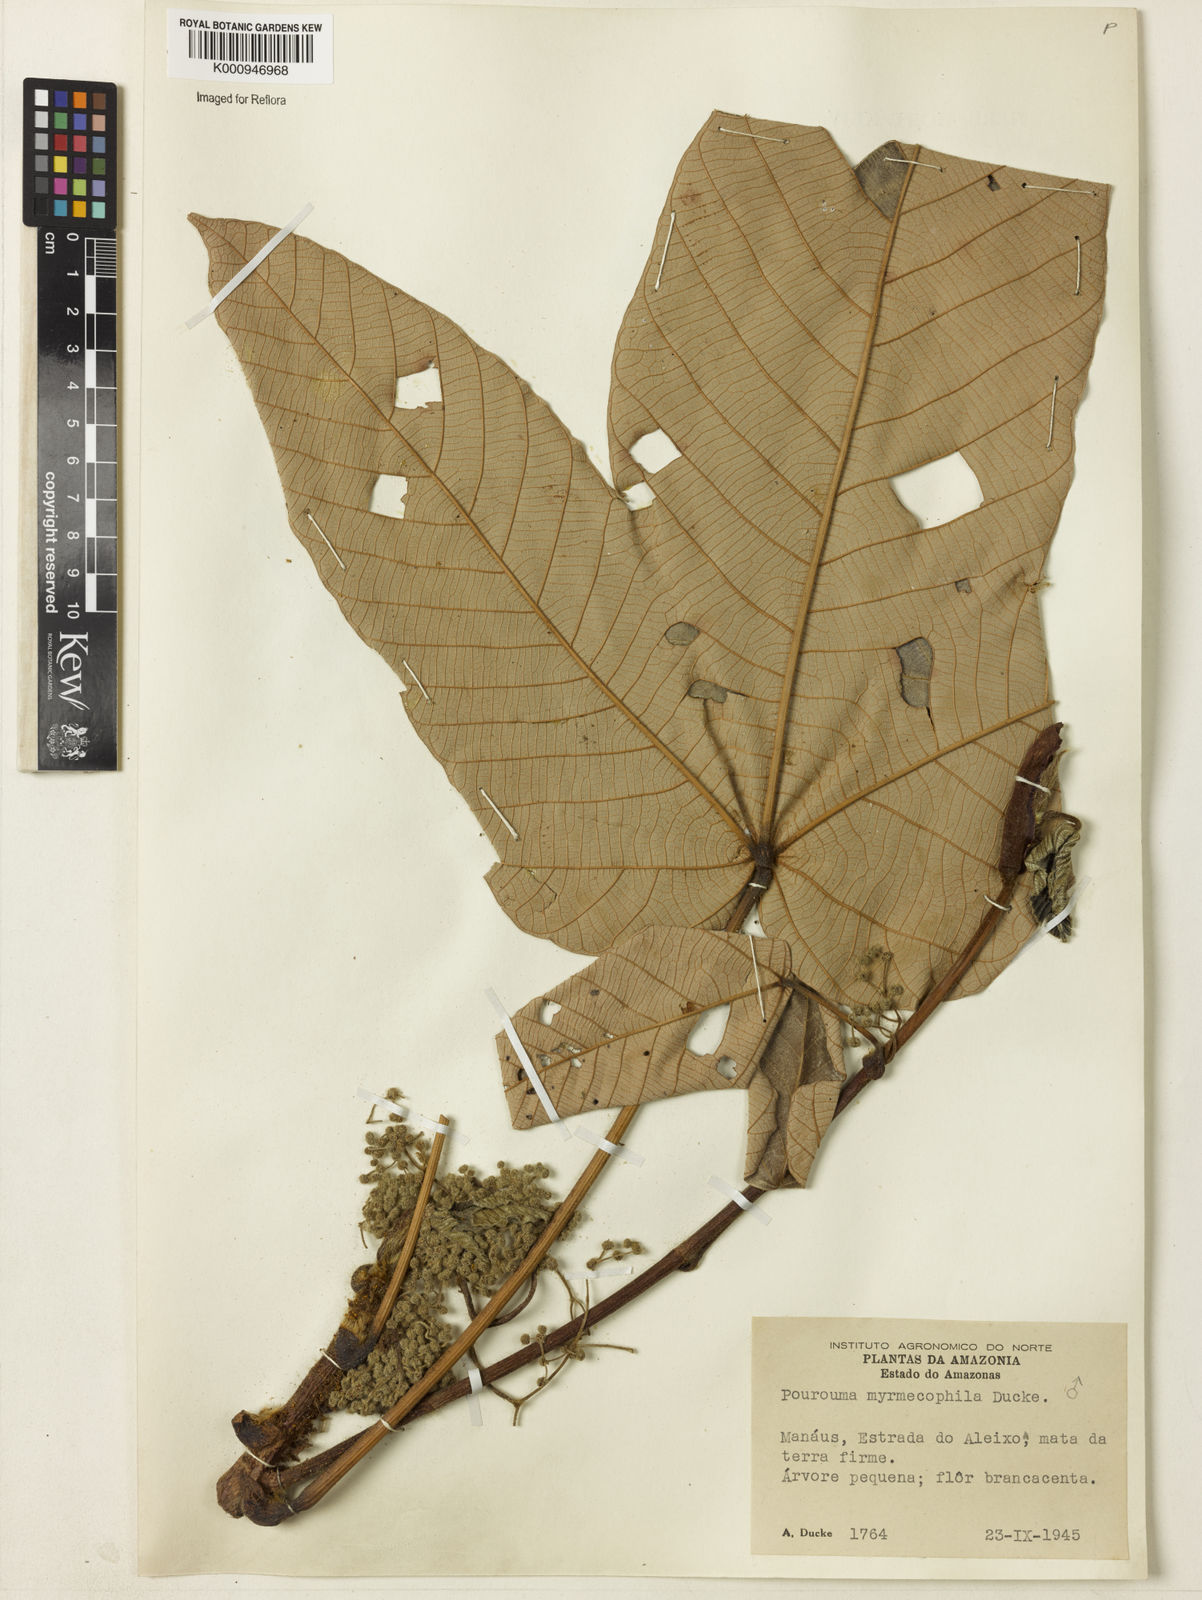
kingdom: Plantae
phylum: Tracheophyta
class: Magnoliopsida
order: Rosales
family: Urticaceae
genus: Pourouma
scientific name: Pourouma myrmecophila
